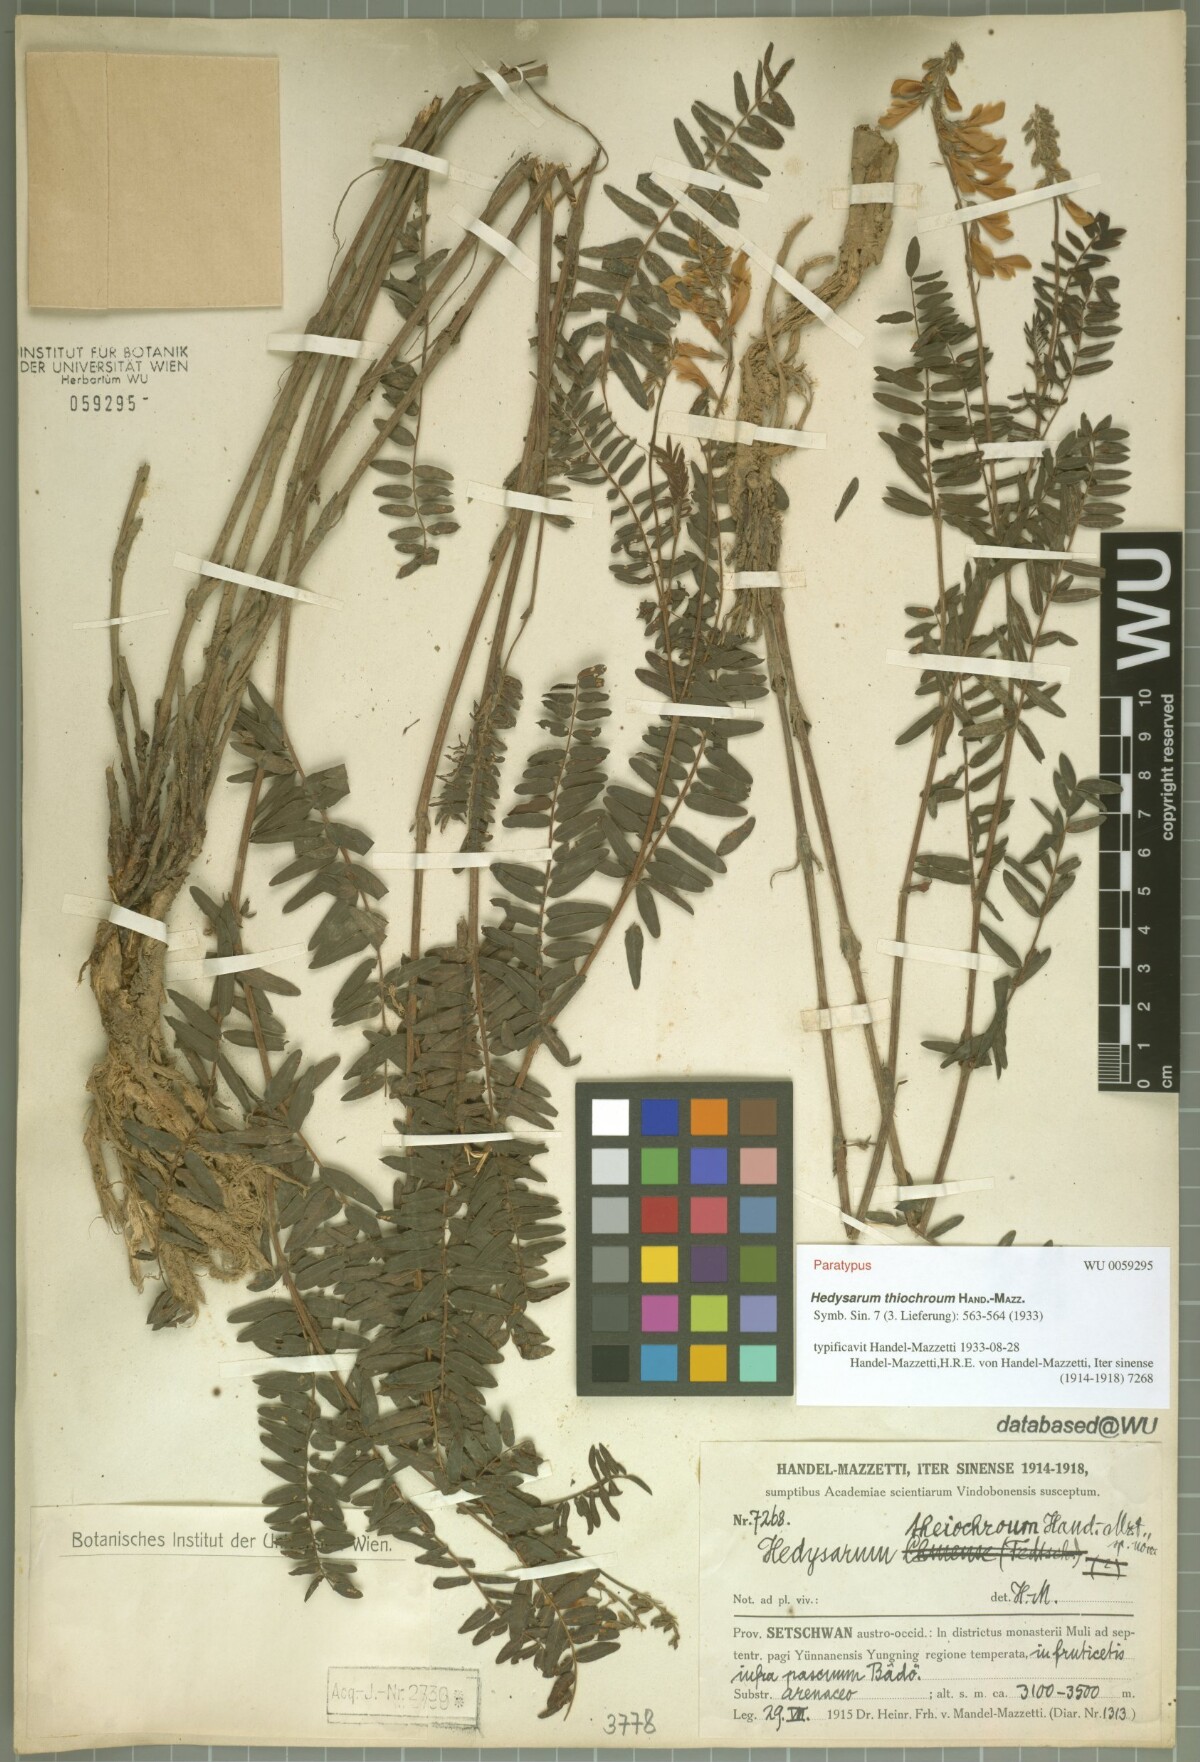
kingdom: Plantae
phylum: Tracheophyta
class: Magnoliopsida
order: Fabales
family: Fabaceae
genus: Hedysarum
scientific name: Hedysarum thiochroum
